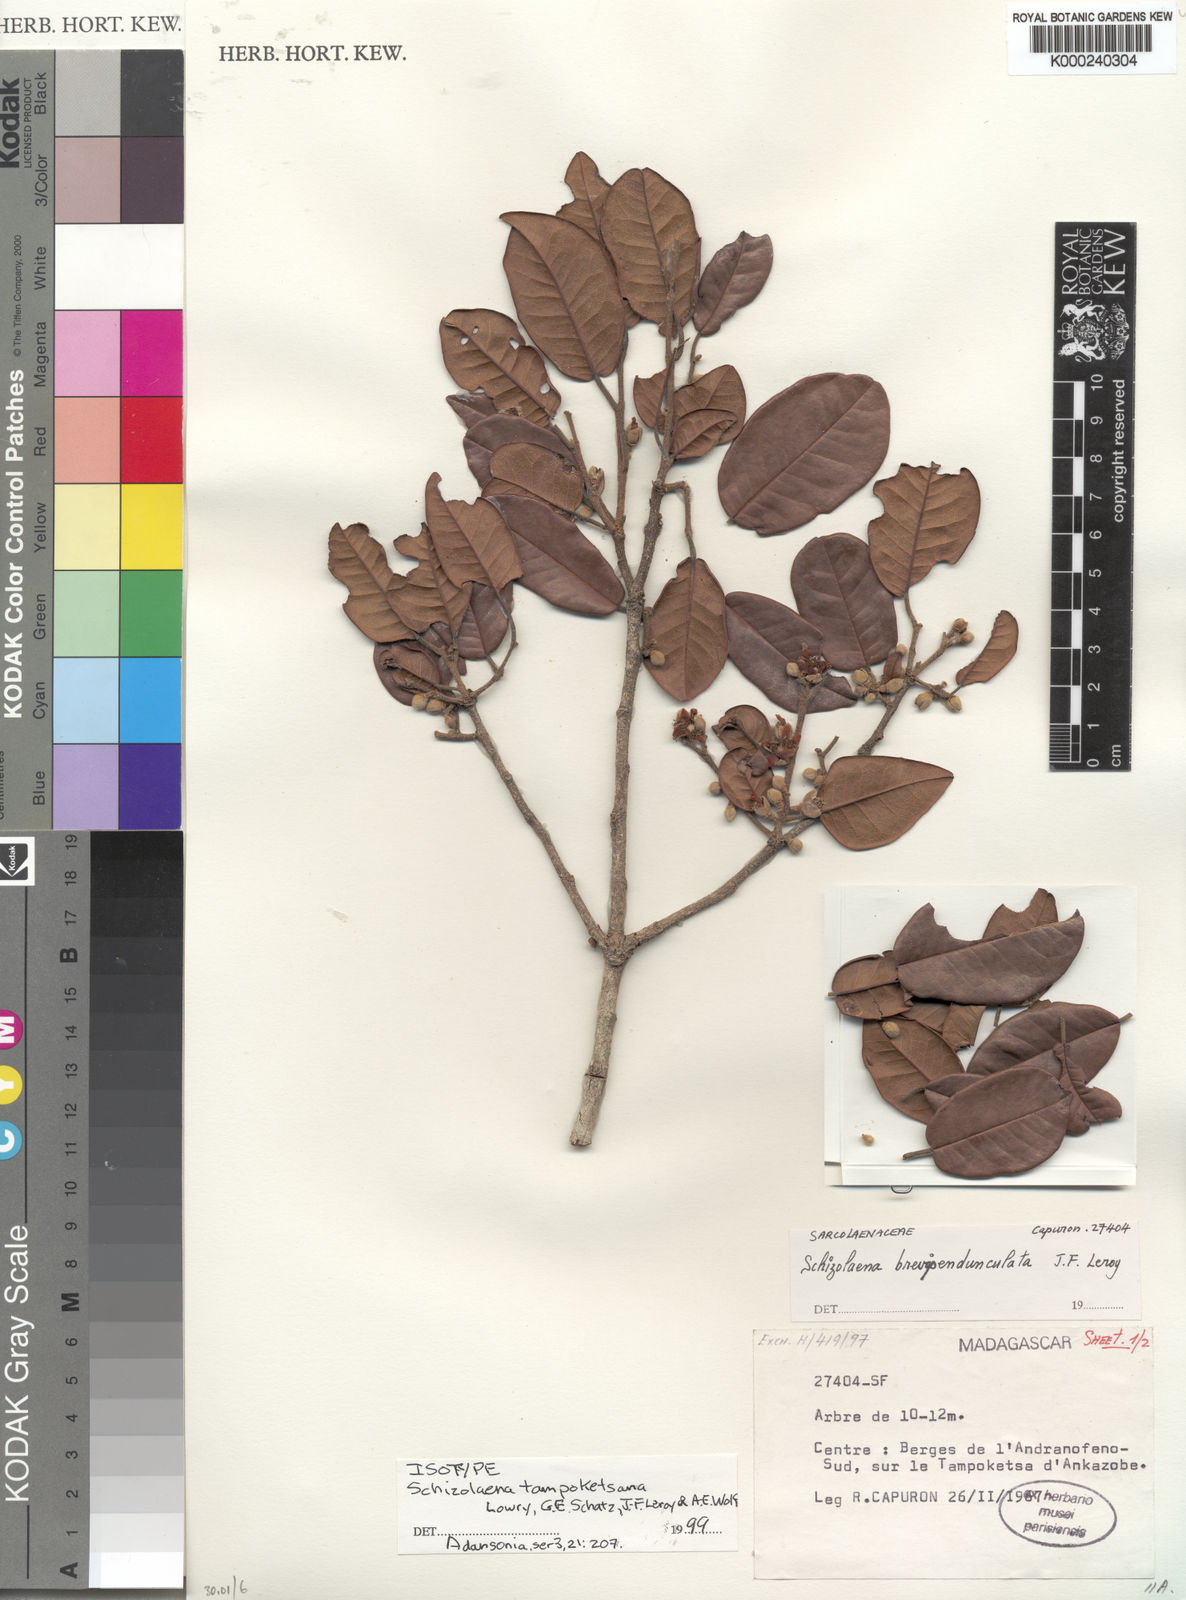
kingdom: Plantae
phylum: Tracheophyta
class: Magnoliopsida
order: Malvales
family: Sarcolaenaceae
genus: Schizolaena
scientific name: Schizolaena tampoketsana
